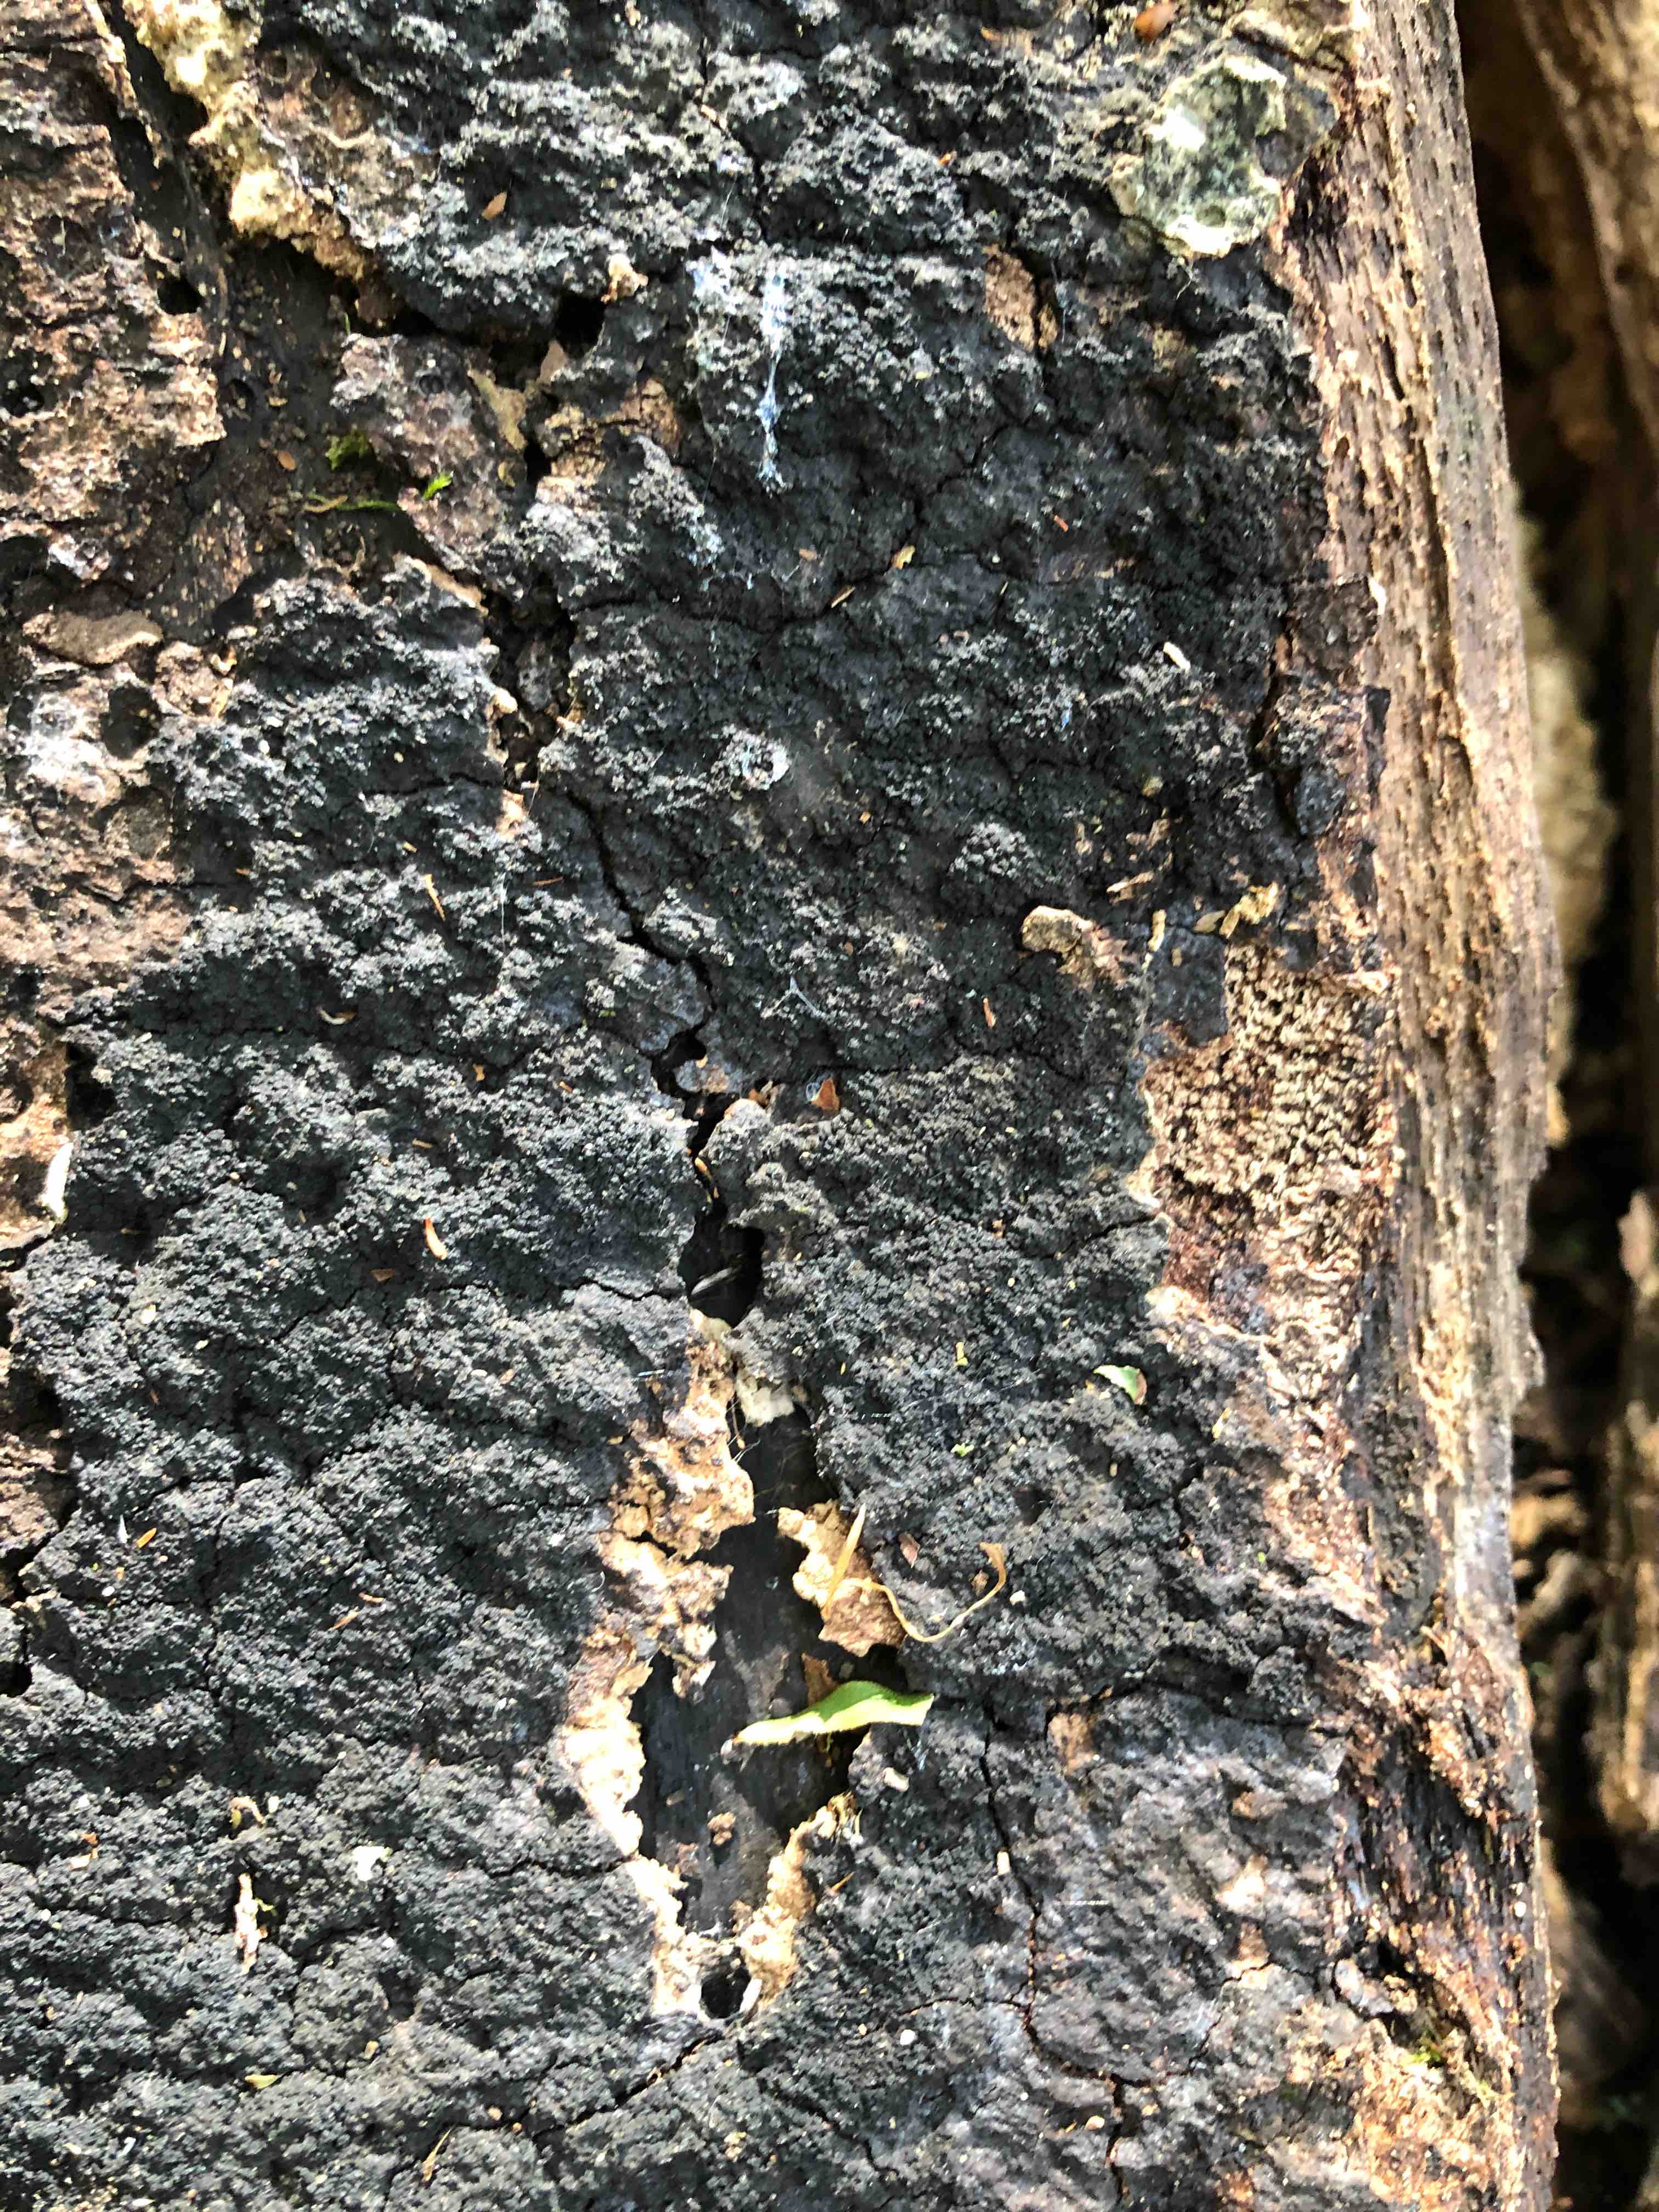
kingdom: Fungi
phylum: Ascomycota
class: Sordariomycetes
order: Xylariales
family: Diatrypaceae
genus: Eutypa
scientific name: Eutypa spinosa
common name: grov kulskorpe
